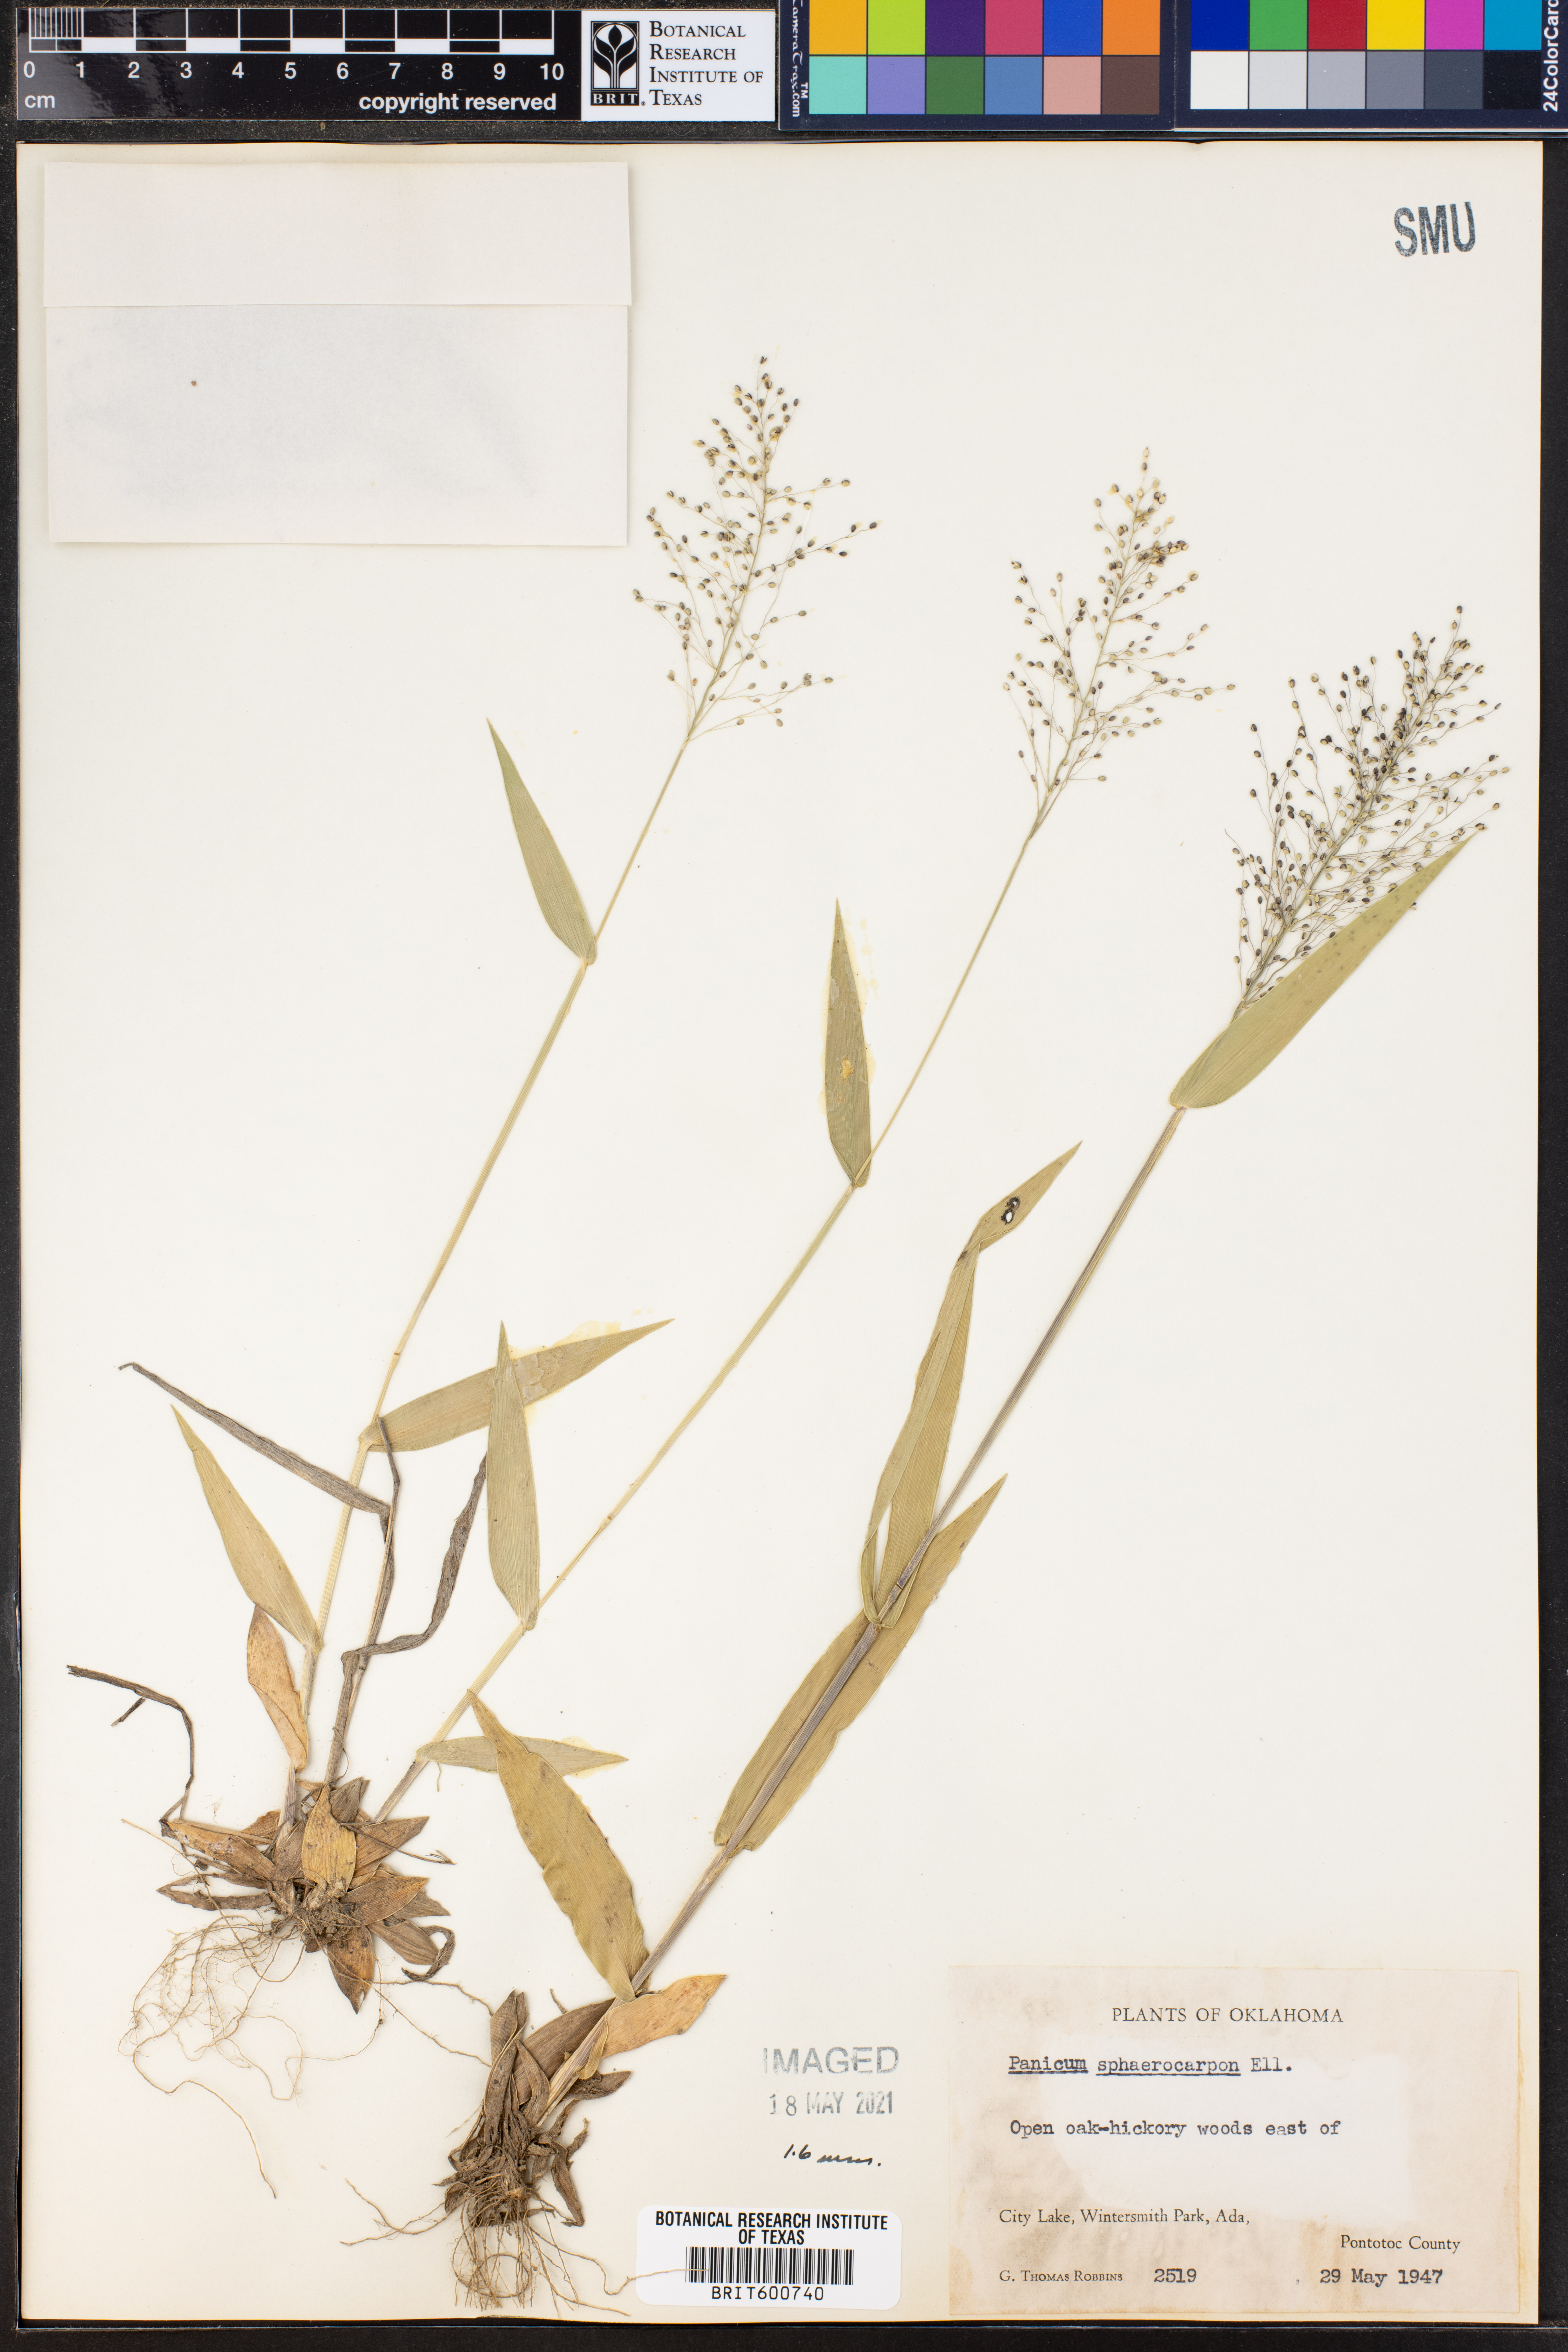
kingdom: Plantae
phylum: Tracheophyta
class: Liliopsida
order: Poales
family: Poaceae
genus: Dichanthelium
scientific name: Dichanthelium sphaerocarpon
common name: Round-fruited panicgrass
